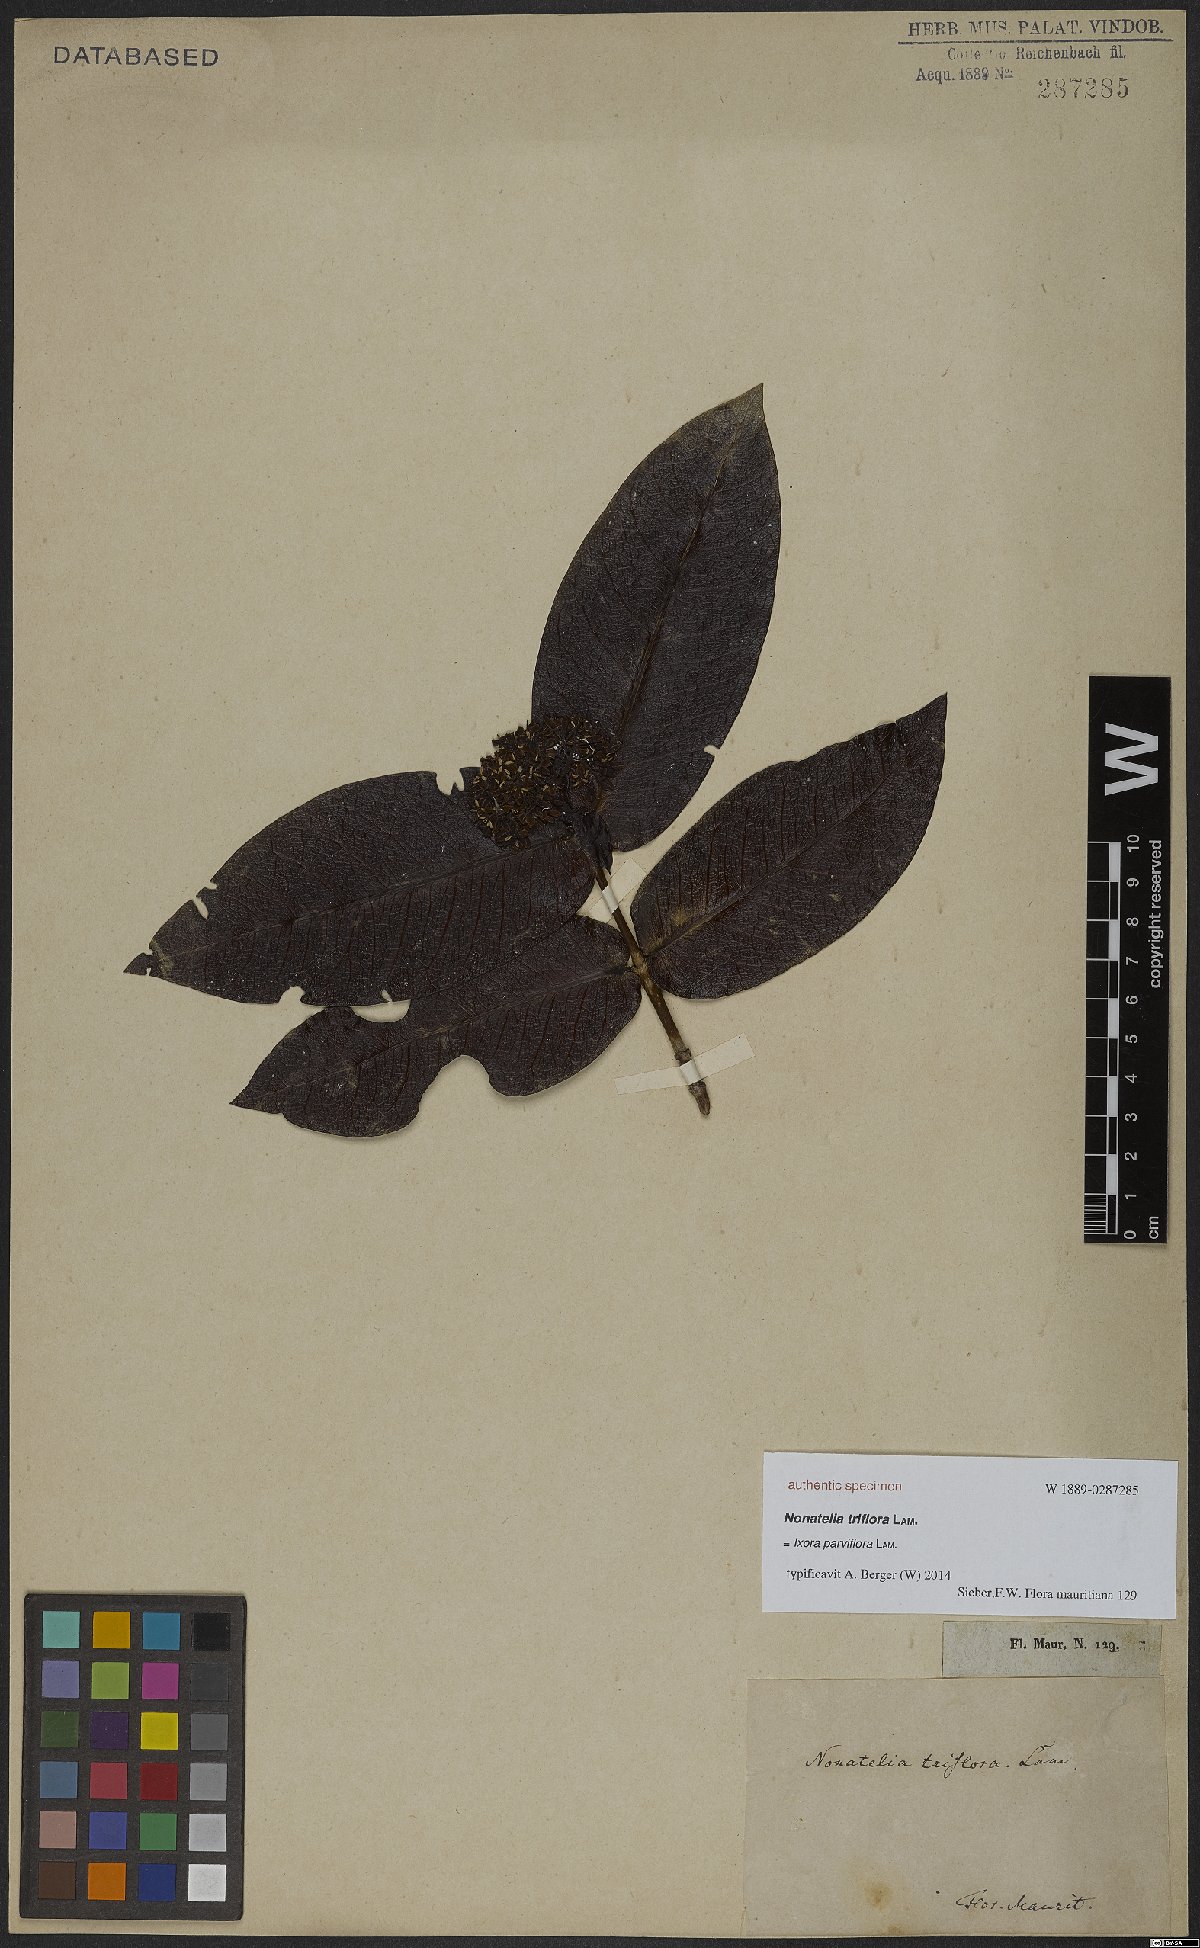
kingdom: Plantae
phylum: Tracheophyta
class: Magnoliopsida
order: Gentianales
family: Rubiaceae
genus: Ixora
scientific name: Ixora parviflora
